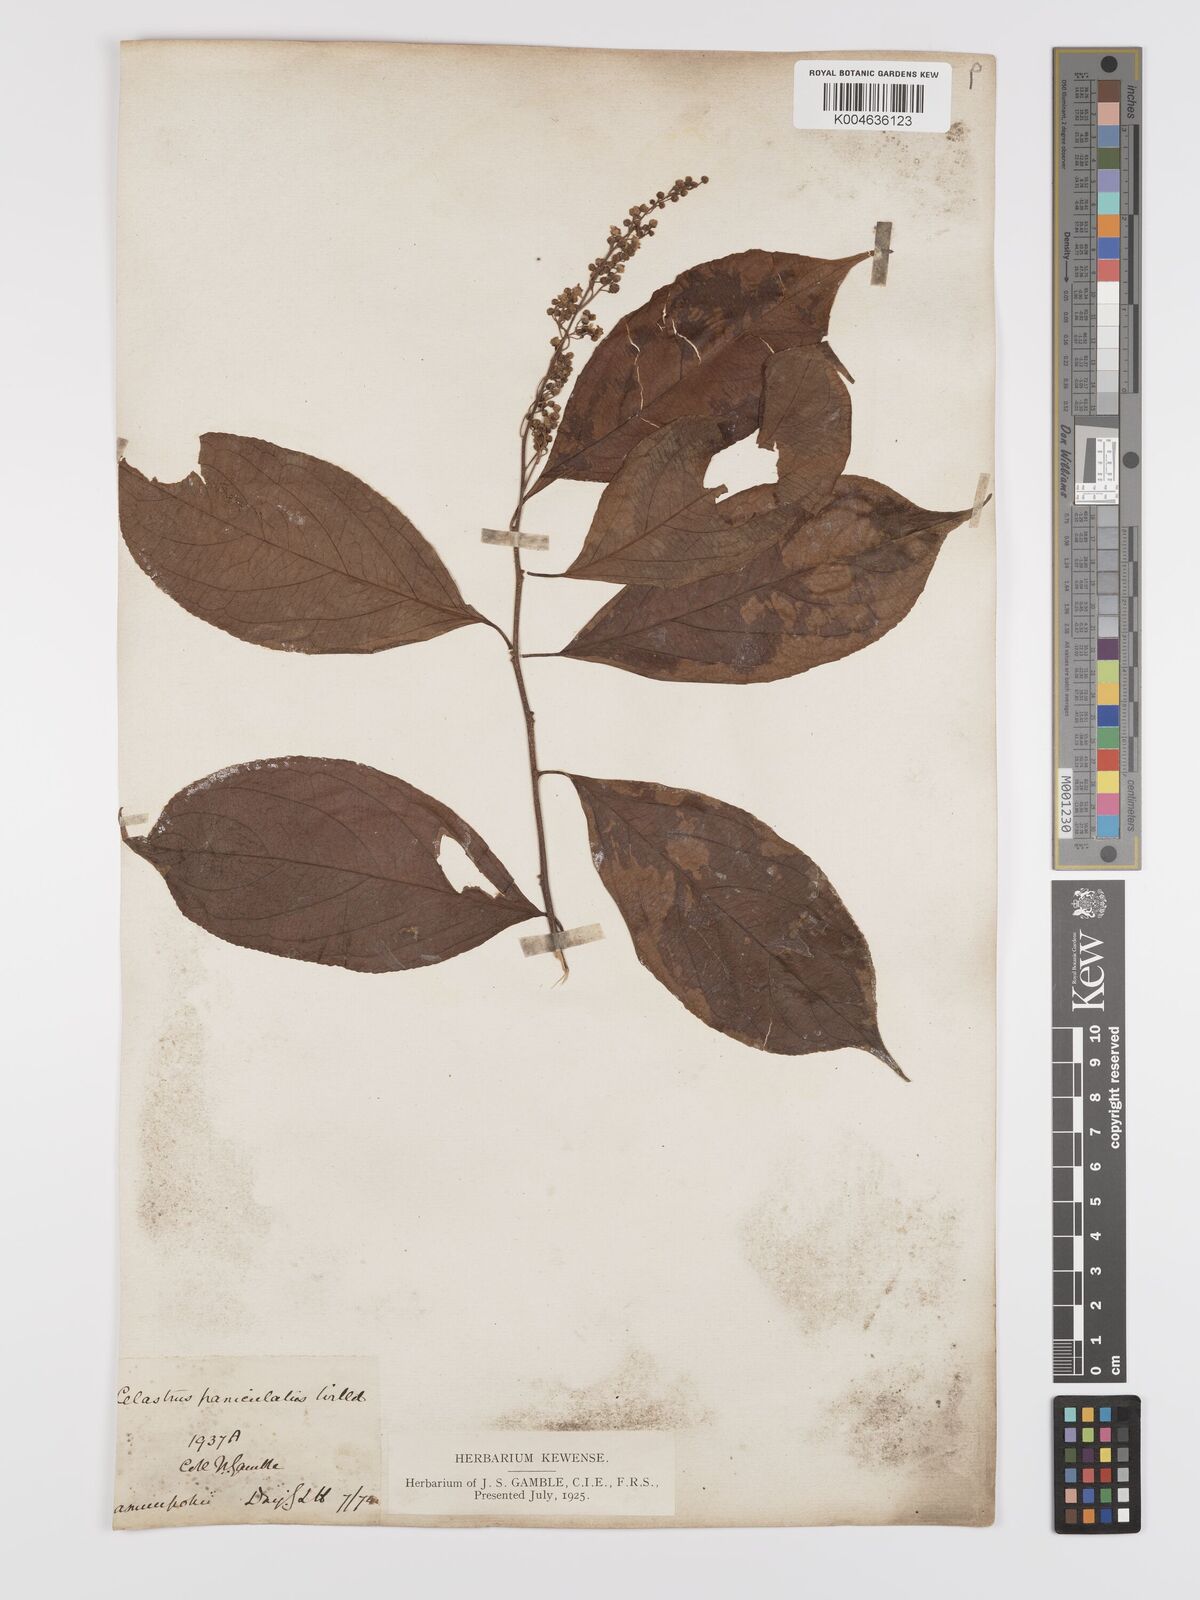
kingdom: Plantae
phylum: Tracheophyta
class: Magnoliopsida
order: Celastrales
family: Celastraceae
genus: Celastrus
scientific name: Celastrus paniculatus
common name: Oriental bittersweet; staff vine
